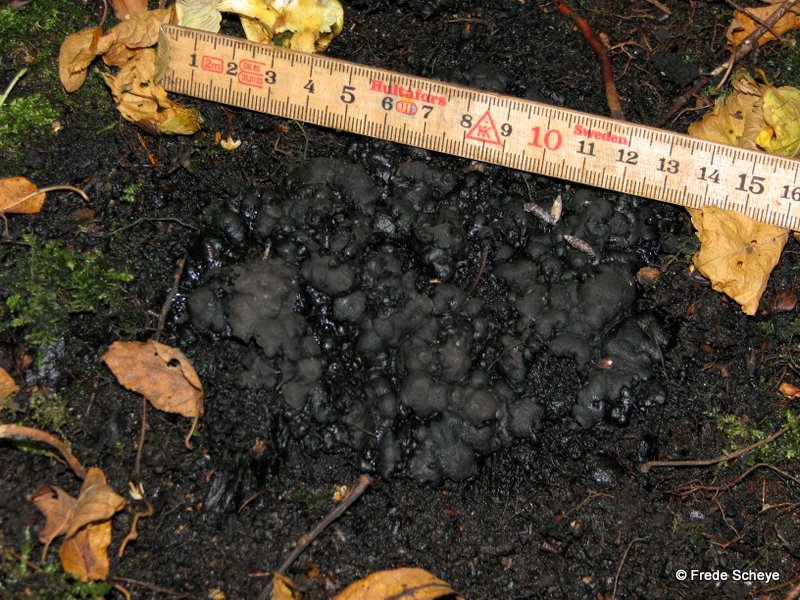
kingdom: Fungi
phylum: Ascomycota
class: Sordariomycetes
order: Xylariales
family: Xylariaceae
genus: Kretzschmaria
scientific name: Kretzschmaria deusta
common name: stor kulsvamp
